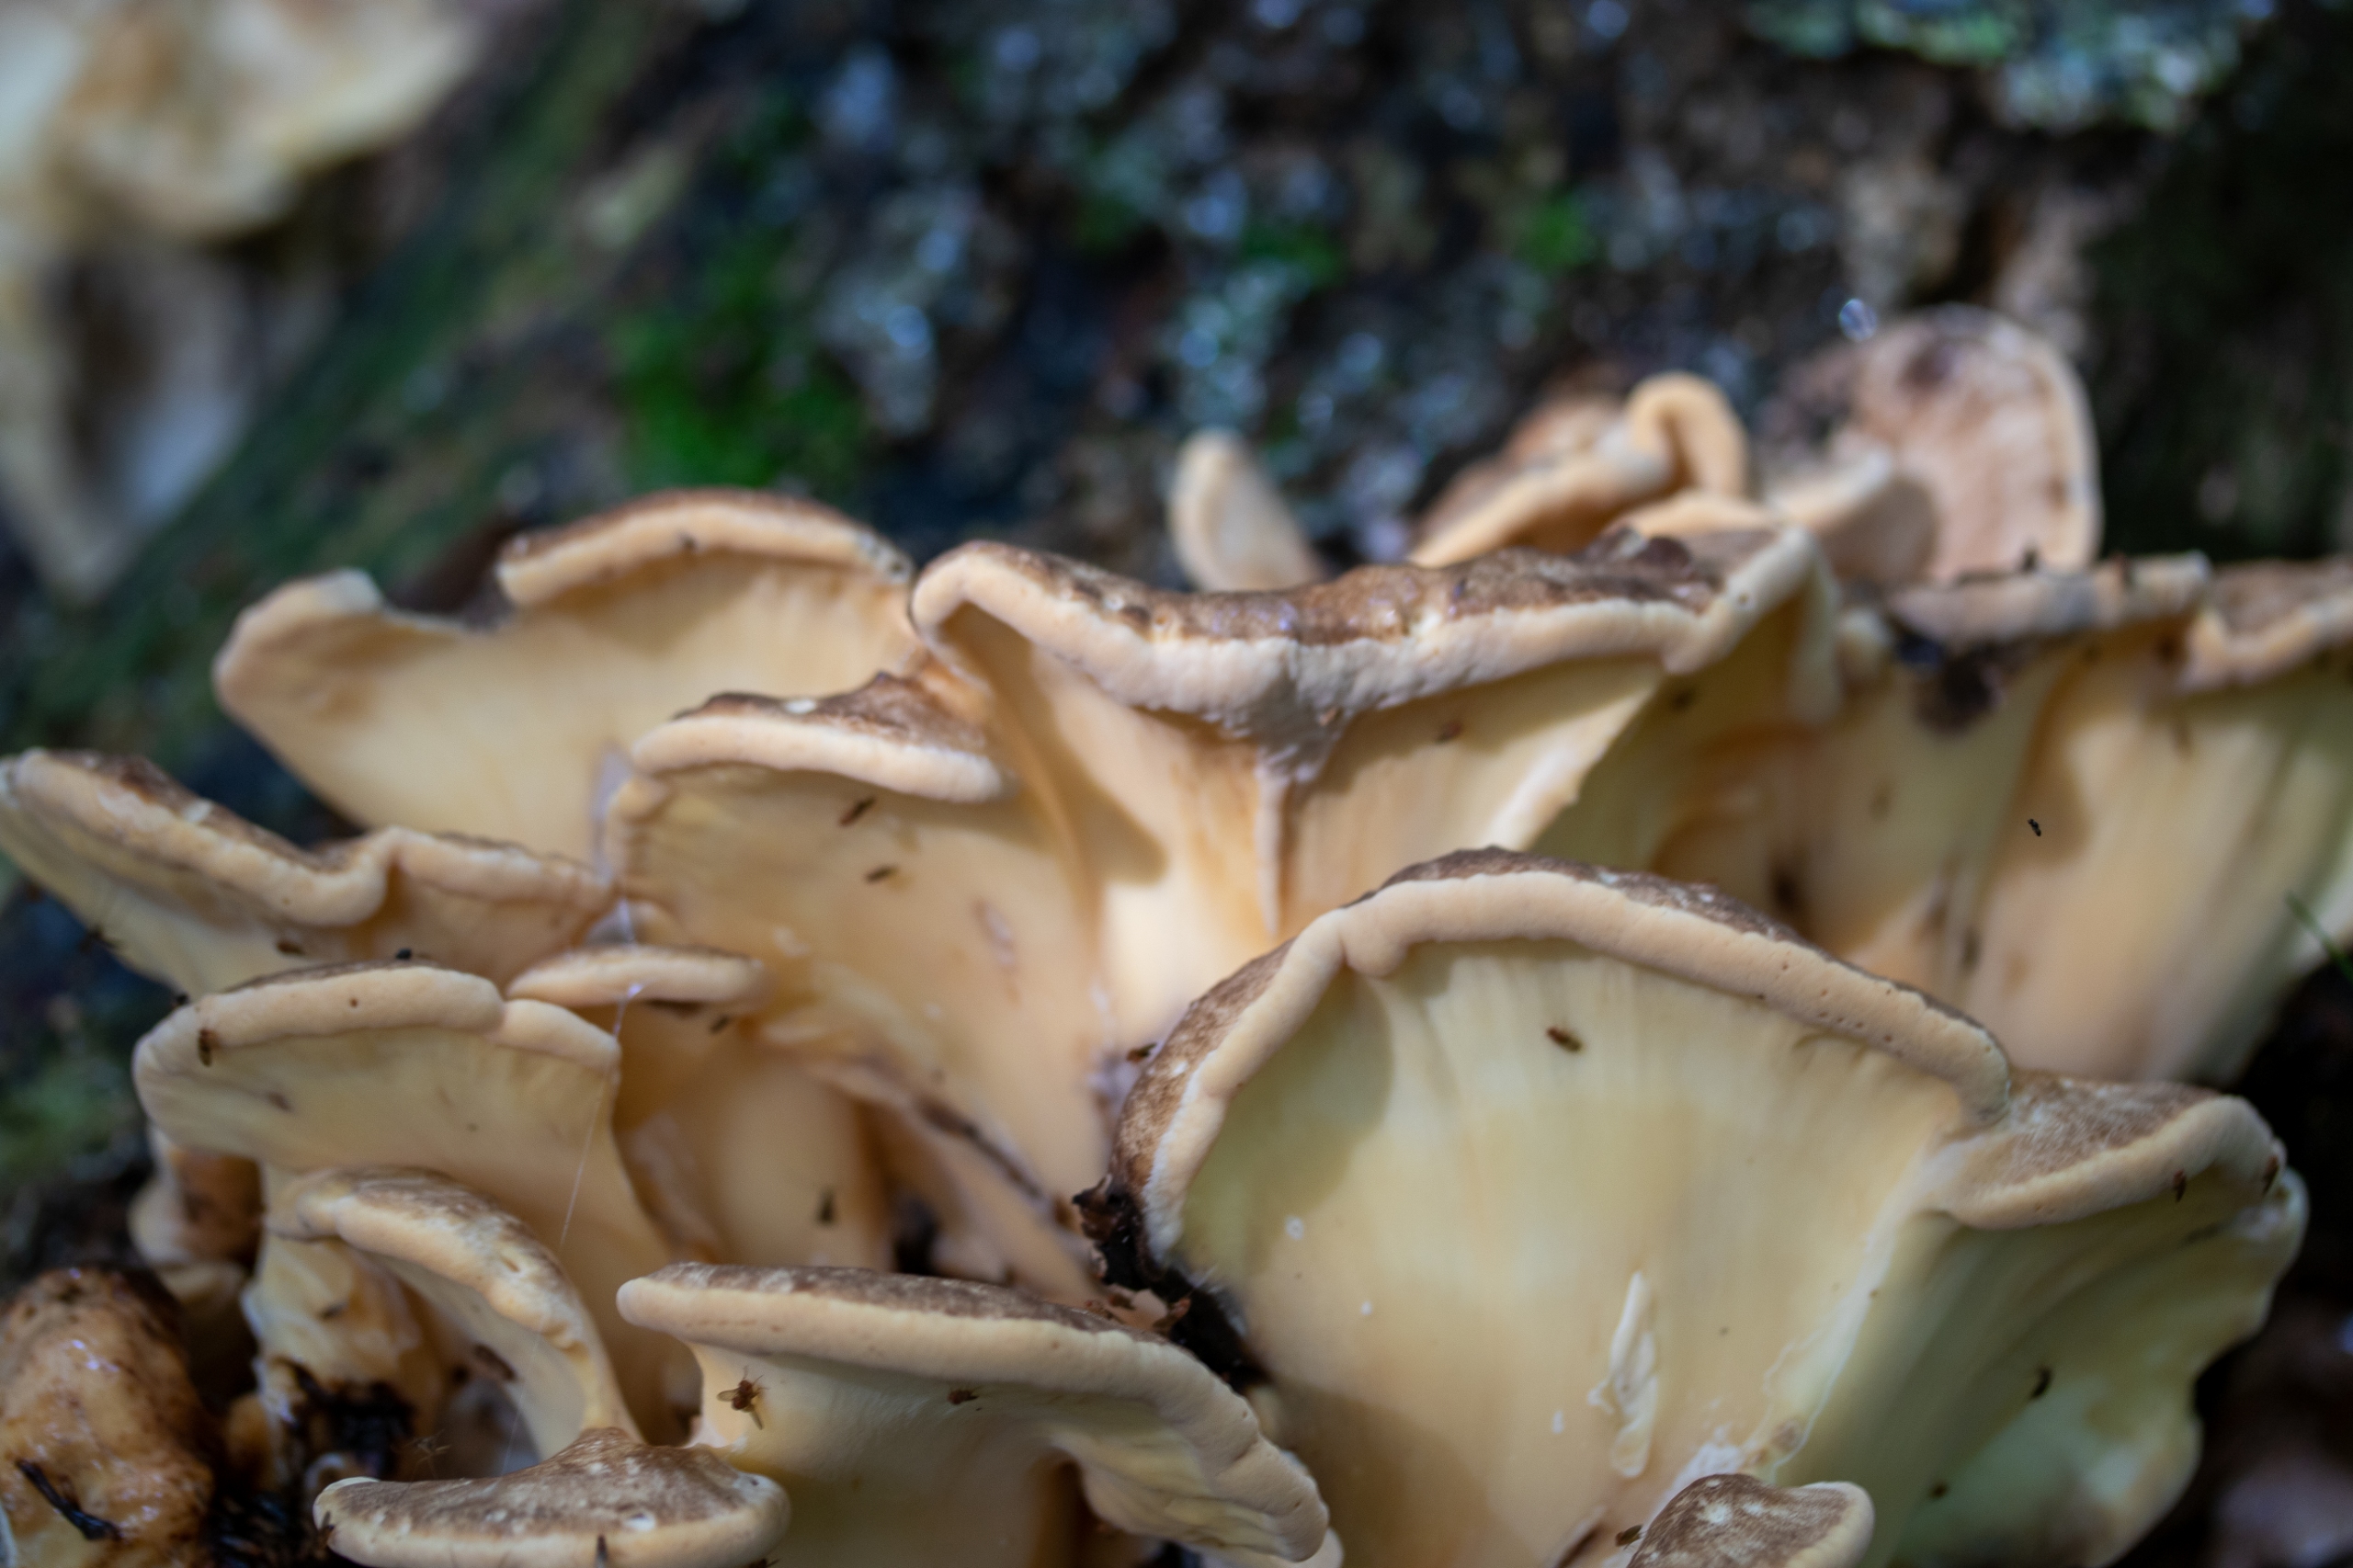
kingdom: Fungi
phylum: Basidiomycota
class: Agaricomycetes
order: Polyporales
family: Meripilaceae
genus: Meripilus
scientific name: Meripilus giganteus
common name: Kæmpeporesvamp
